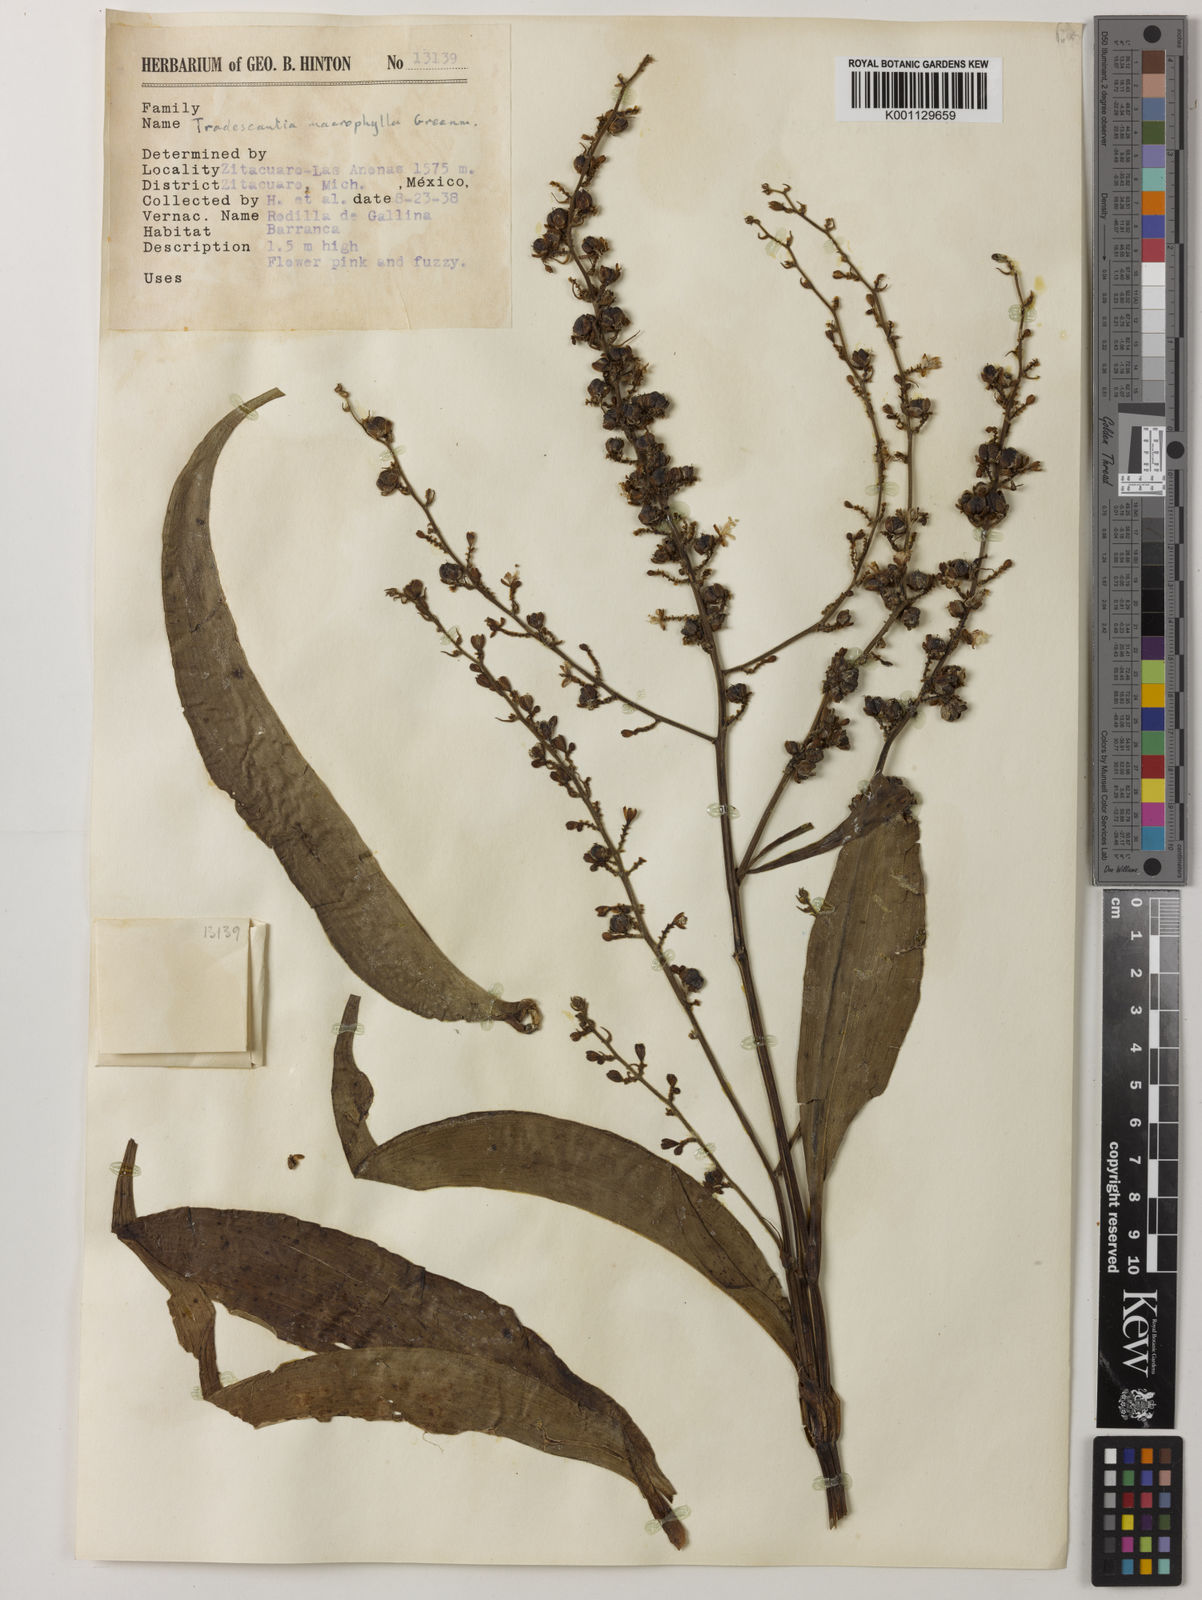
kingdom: Plantae
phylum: Tracheophyta
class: Liliopsida
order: Commelinales
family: Commelinaceae
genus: Thyrsanthemum
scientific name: Thyrsanthemum longifolium
